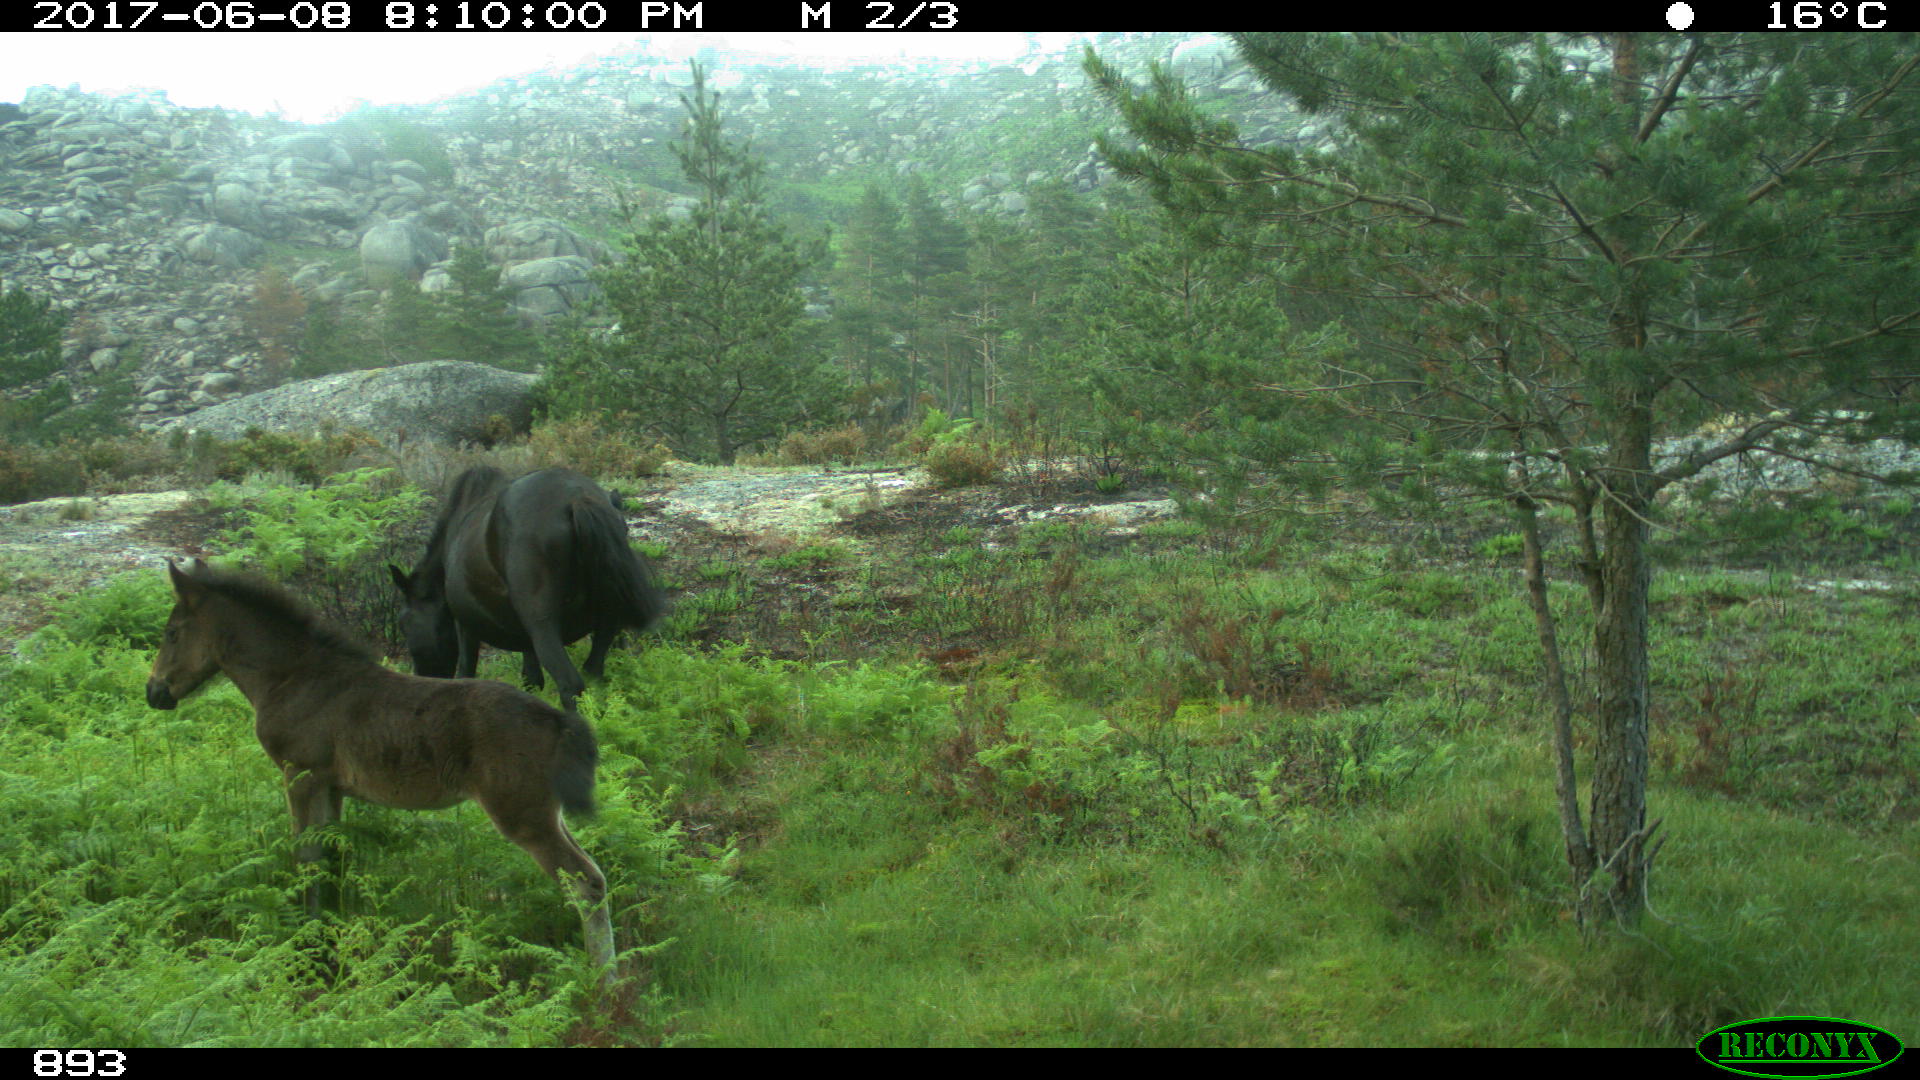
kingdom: Animalia
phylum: Chordata
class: Mammalia
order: Perissodactyla
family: Equidae
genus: Equus
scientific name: Equus caballus
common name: Horse
